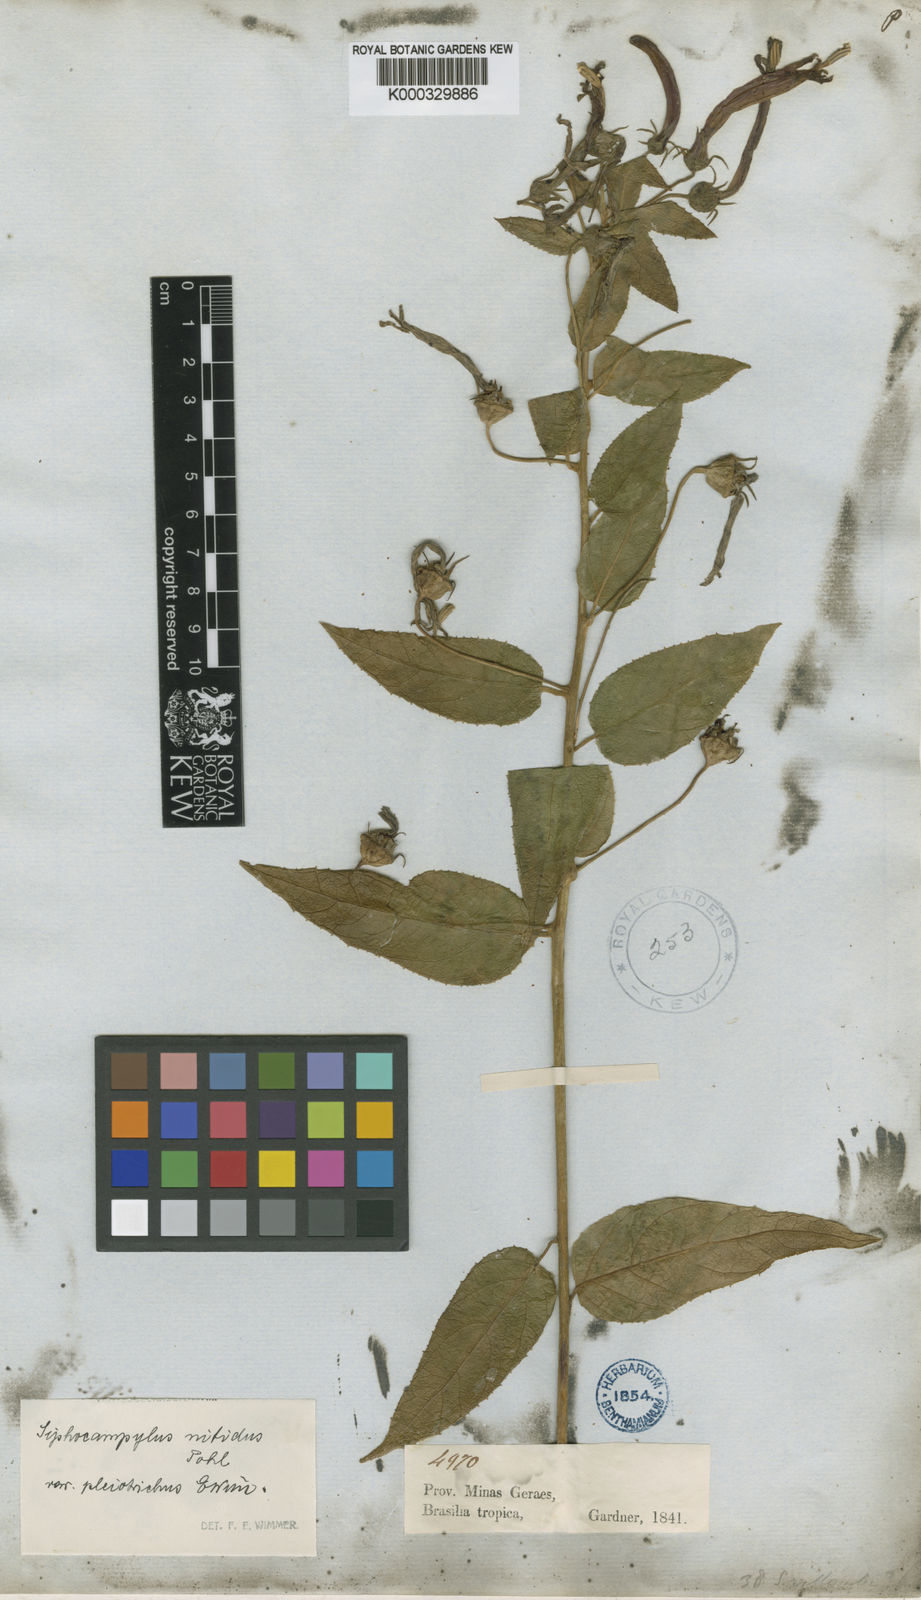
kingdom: Plantae
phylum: Tracheophyta
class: Magnoliopsida
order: Asterales
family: Campanulaceae
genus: Siphocampylus
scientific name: Siphocampylus nitidus
